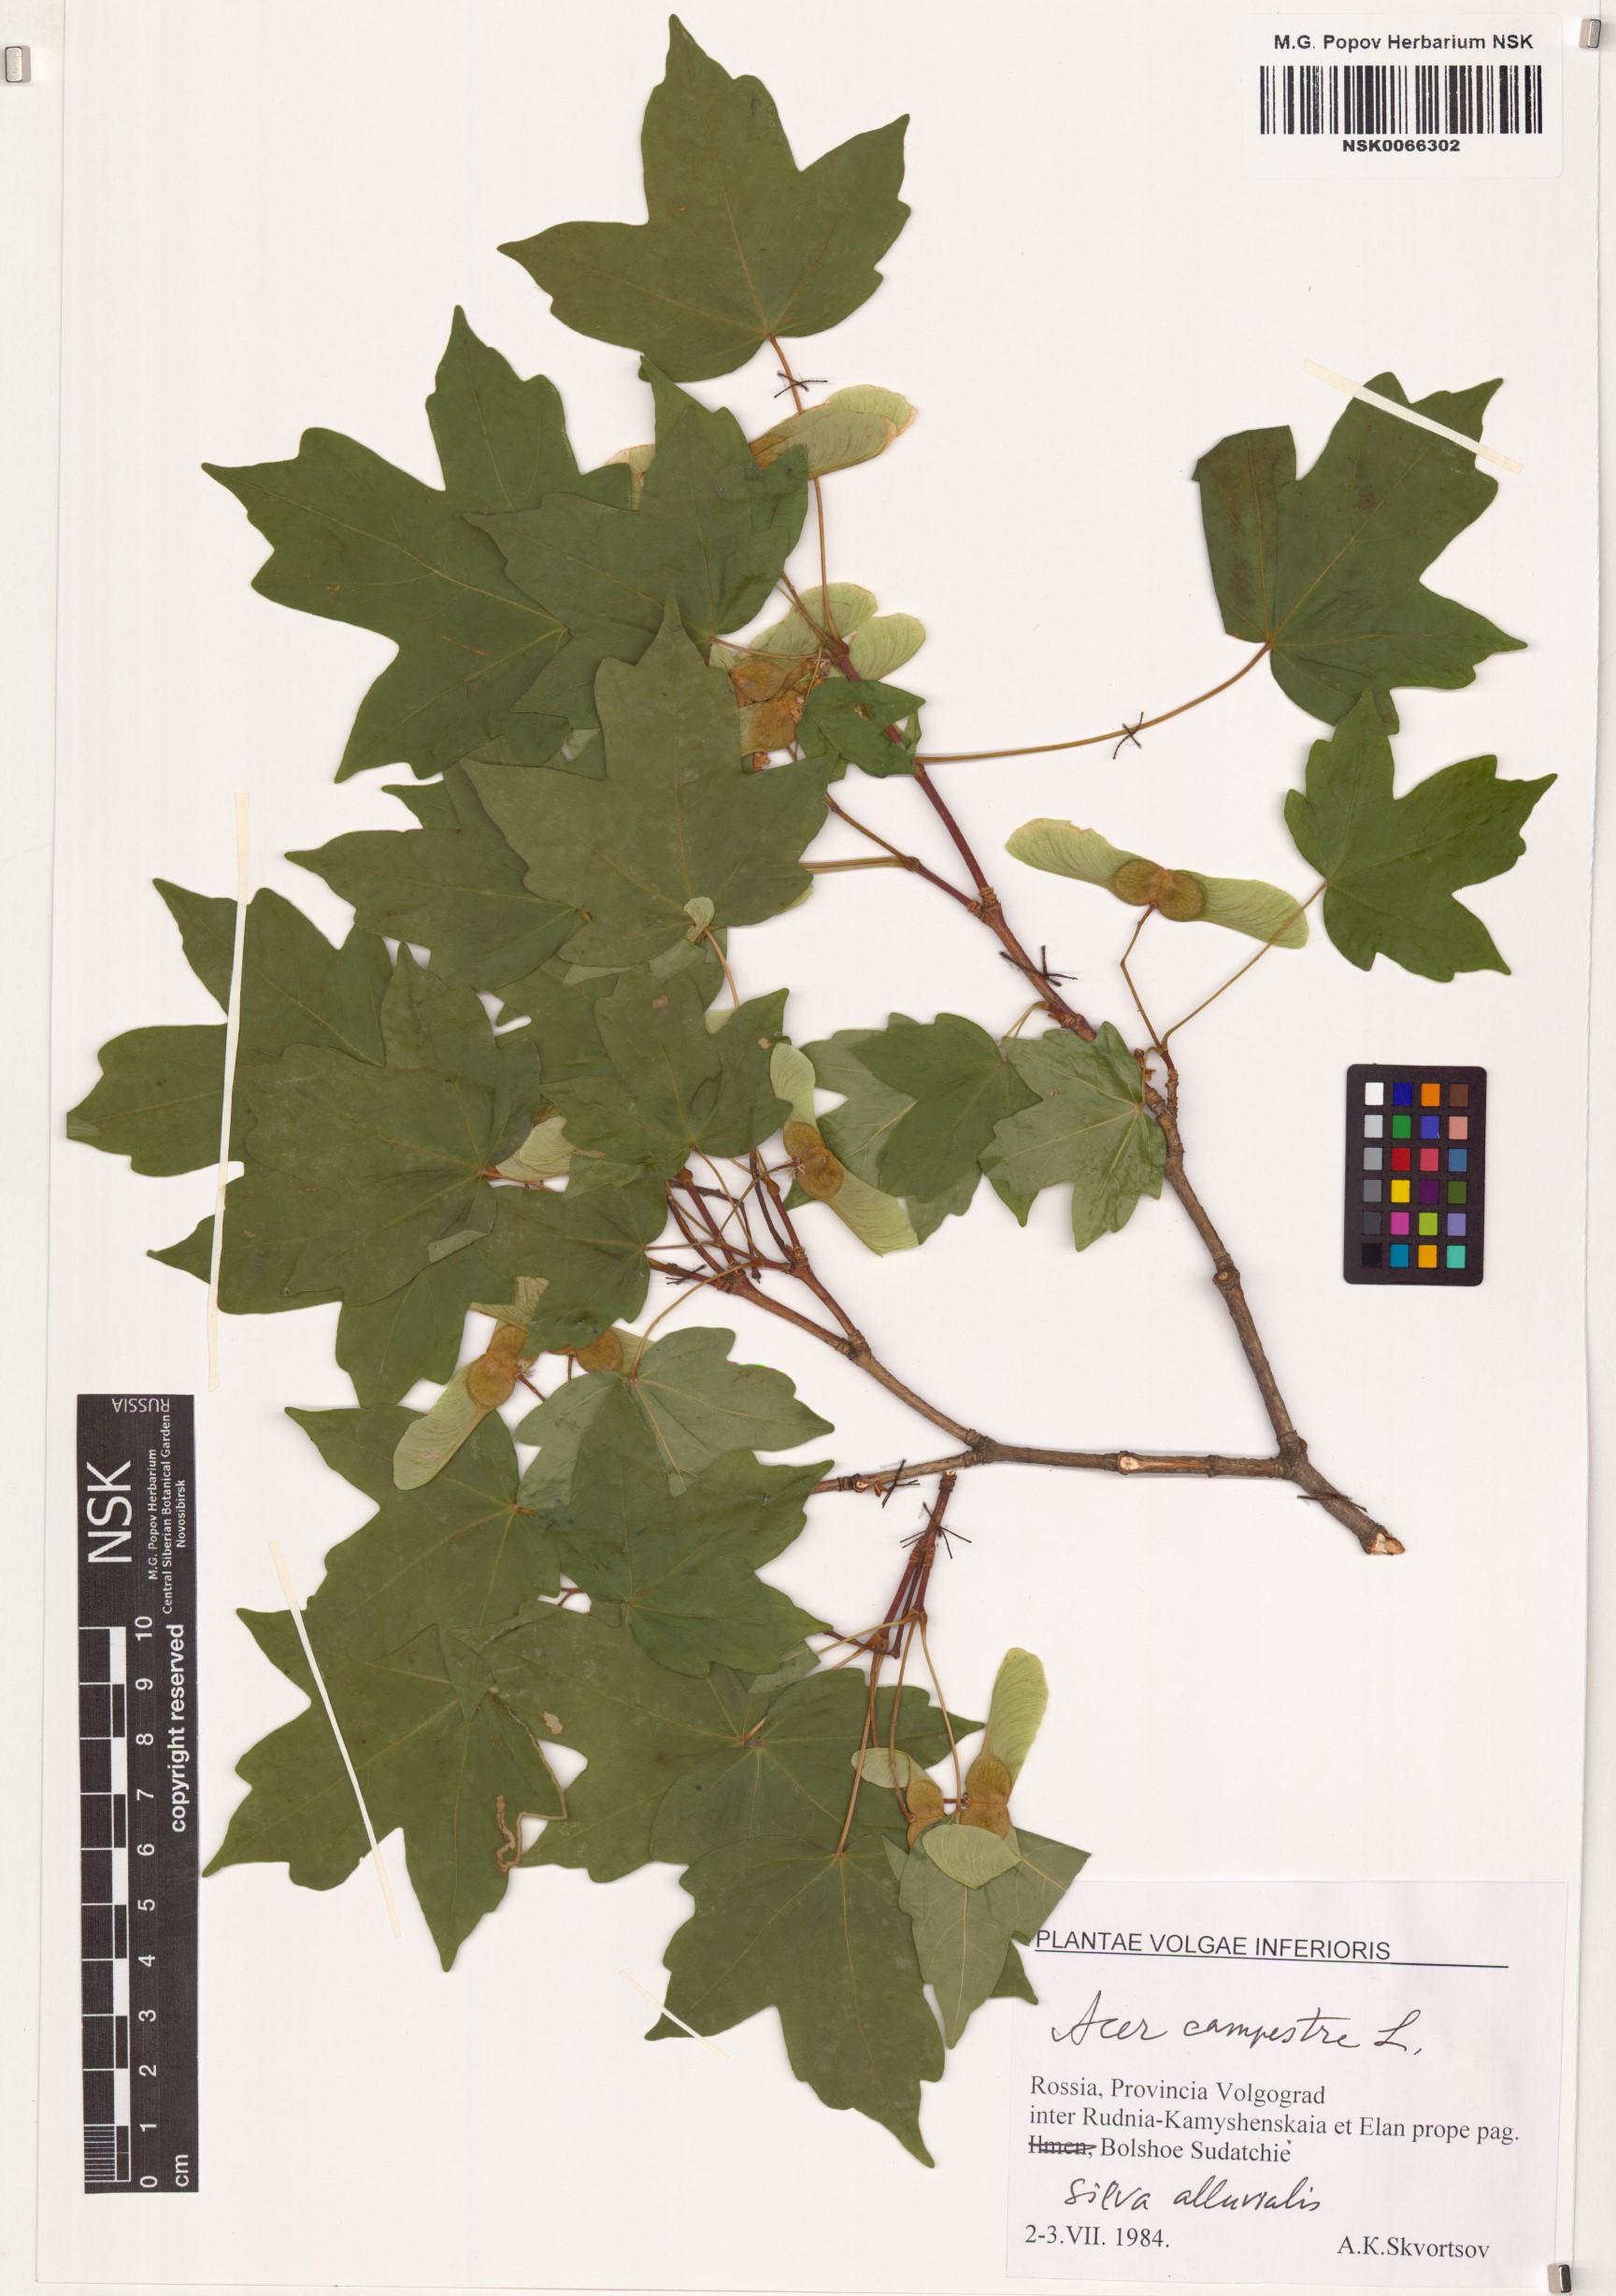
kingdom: Plantae
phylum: Tracheophyta
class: Magnoliopsida
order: Sapindales
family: Sapindaceae
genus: Acer
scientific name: Acer campestre
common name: Field maple
